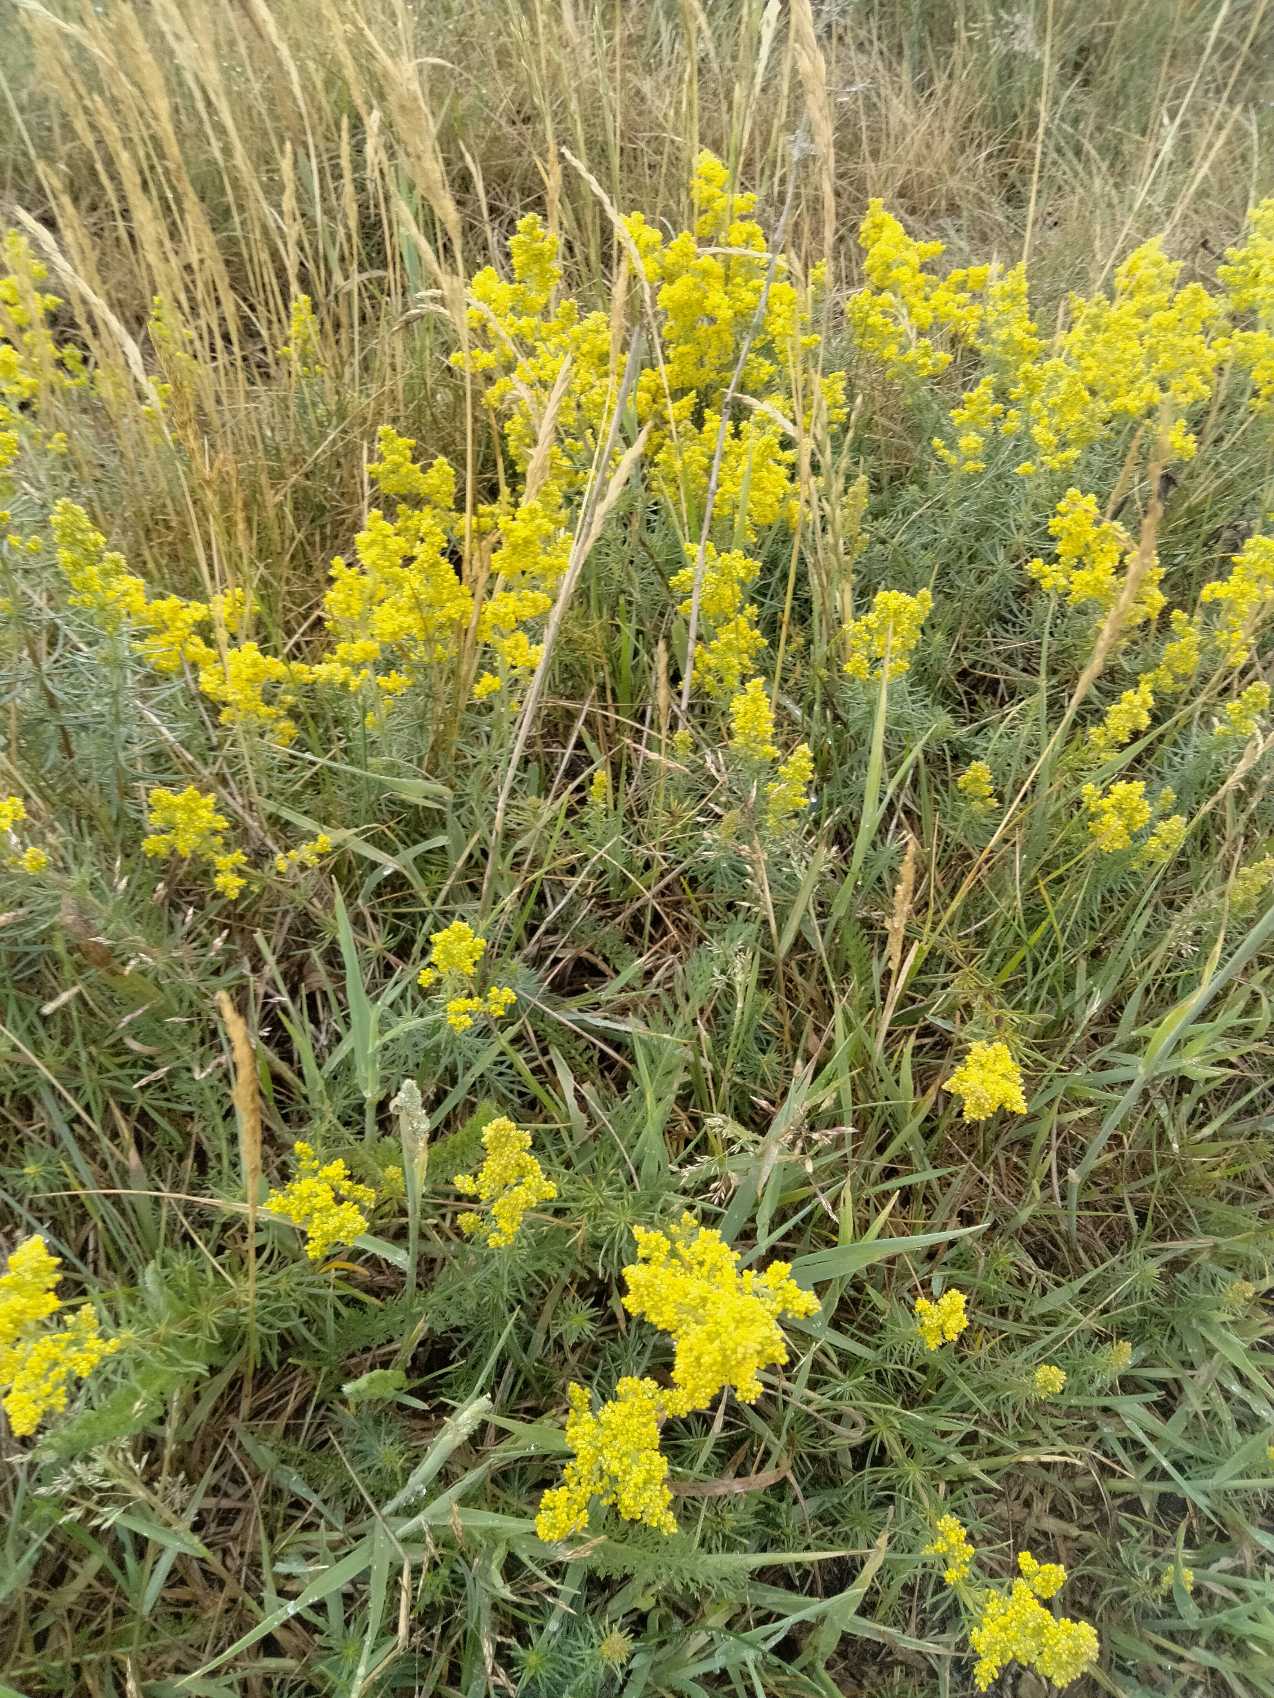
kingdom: Plantae
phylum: Tracheophyta
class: Magnoliopsida
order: Gentianales
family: Rubiaceae
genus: Galium
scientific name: Galium verum
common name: Gul snerre
